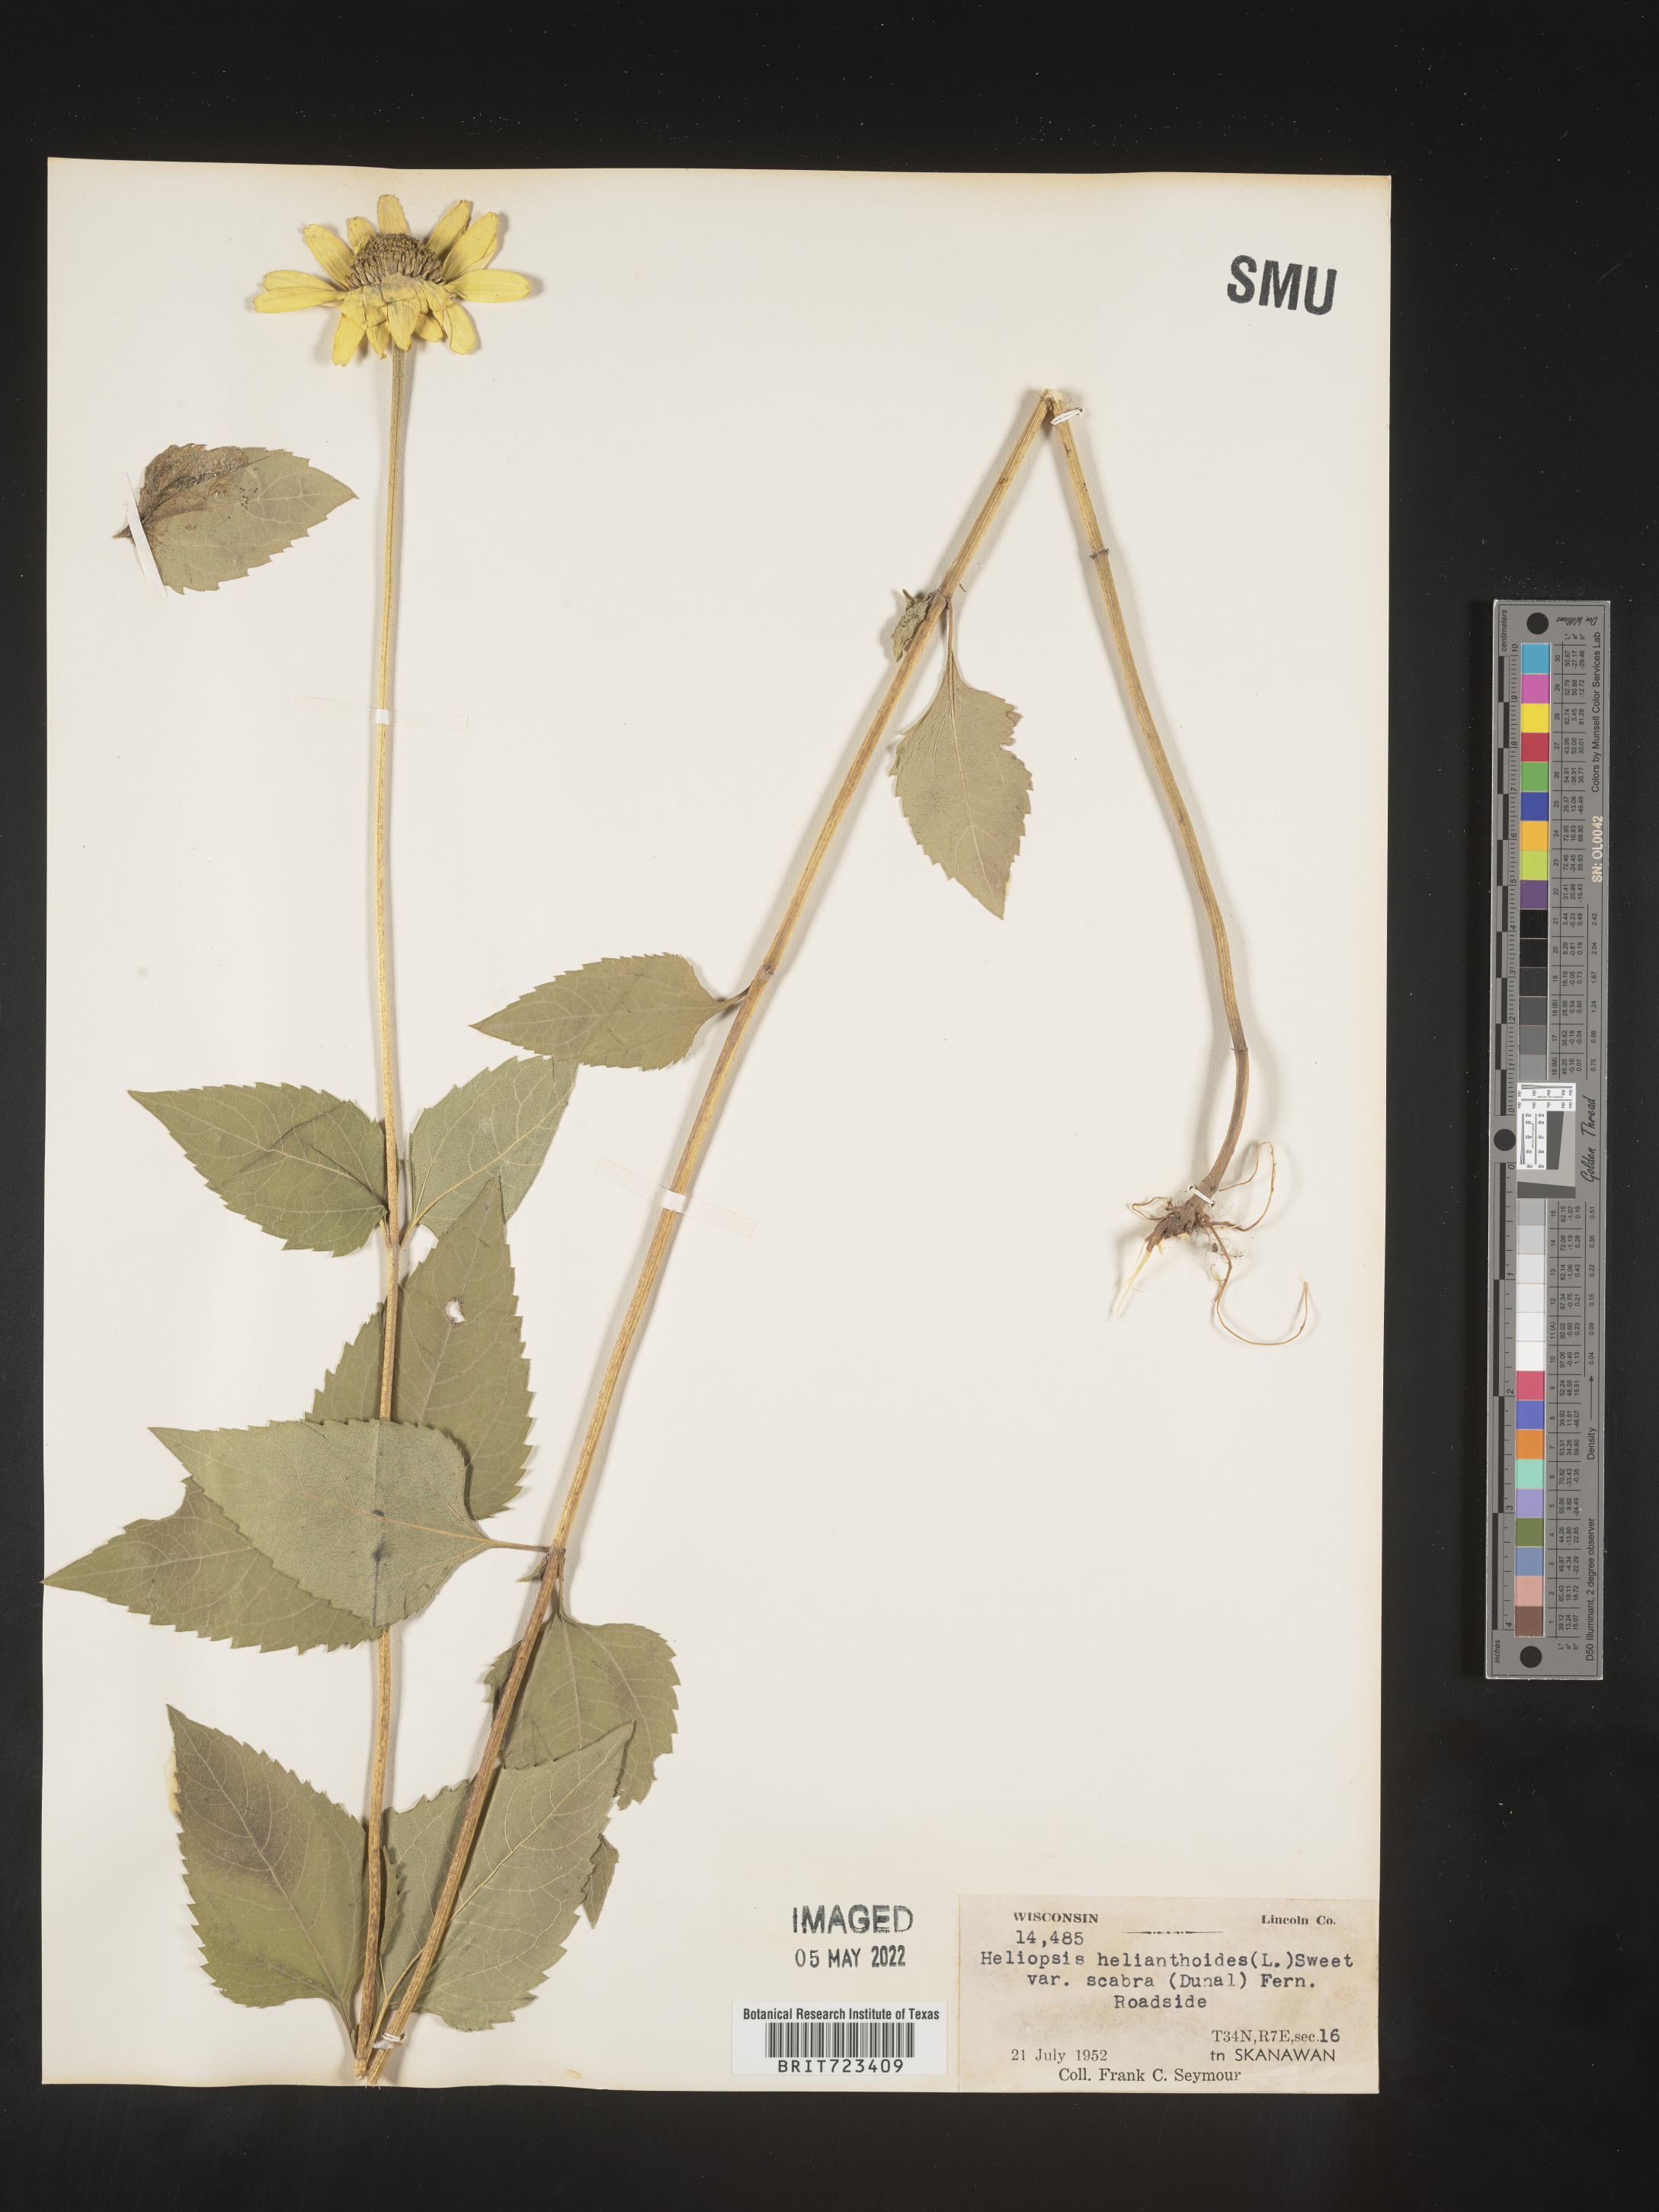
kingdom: Plantae
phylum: Tracheophyta
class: Magnoliopsida
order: Asterales
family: Asteraceae
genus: Heliopsis
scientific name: Heliopsis helianthoides
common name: False sunflower
